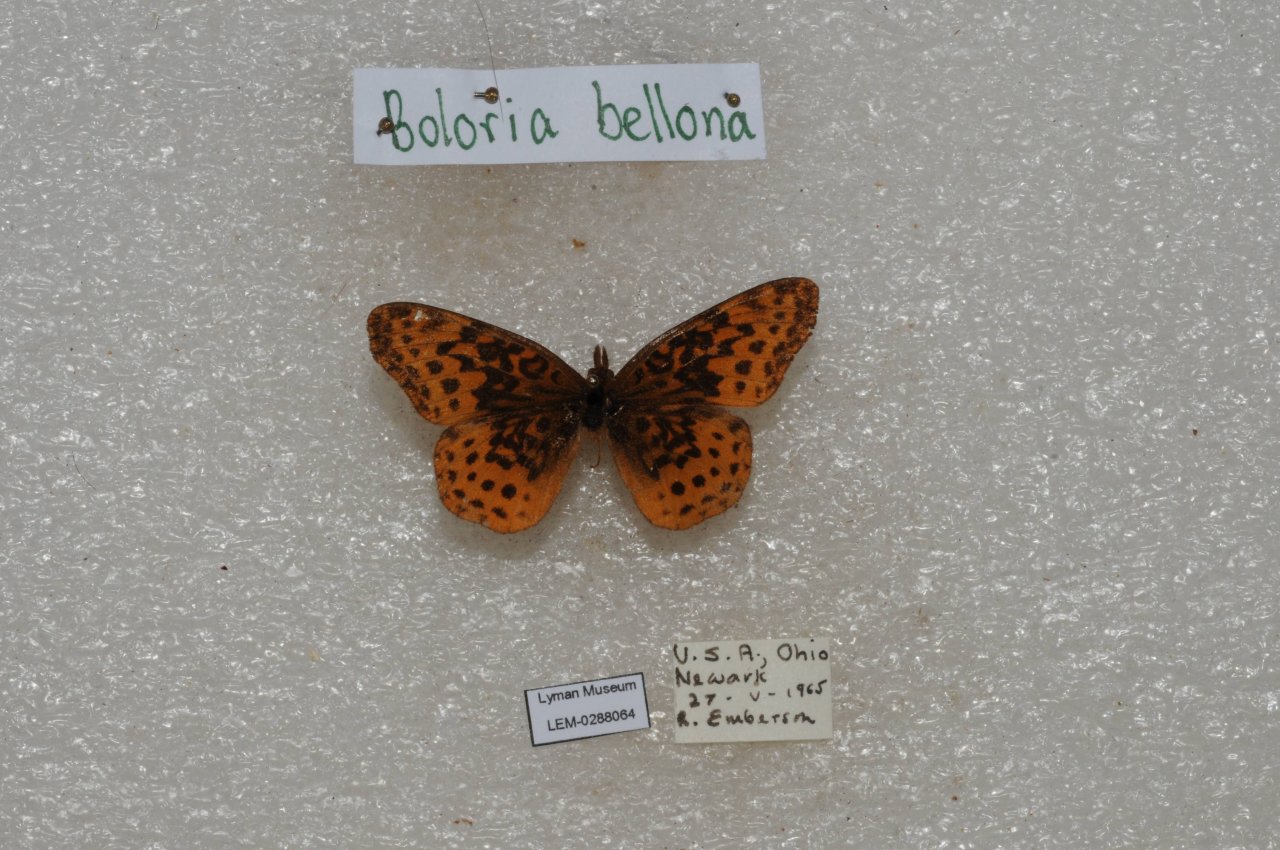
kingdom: Animalia
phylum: Arthropoda
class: Insecta
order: Lepidoptera
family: Nymphalidae
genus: Clossiana
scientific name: Clossiana toddi
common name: Meadow Fritillary
